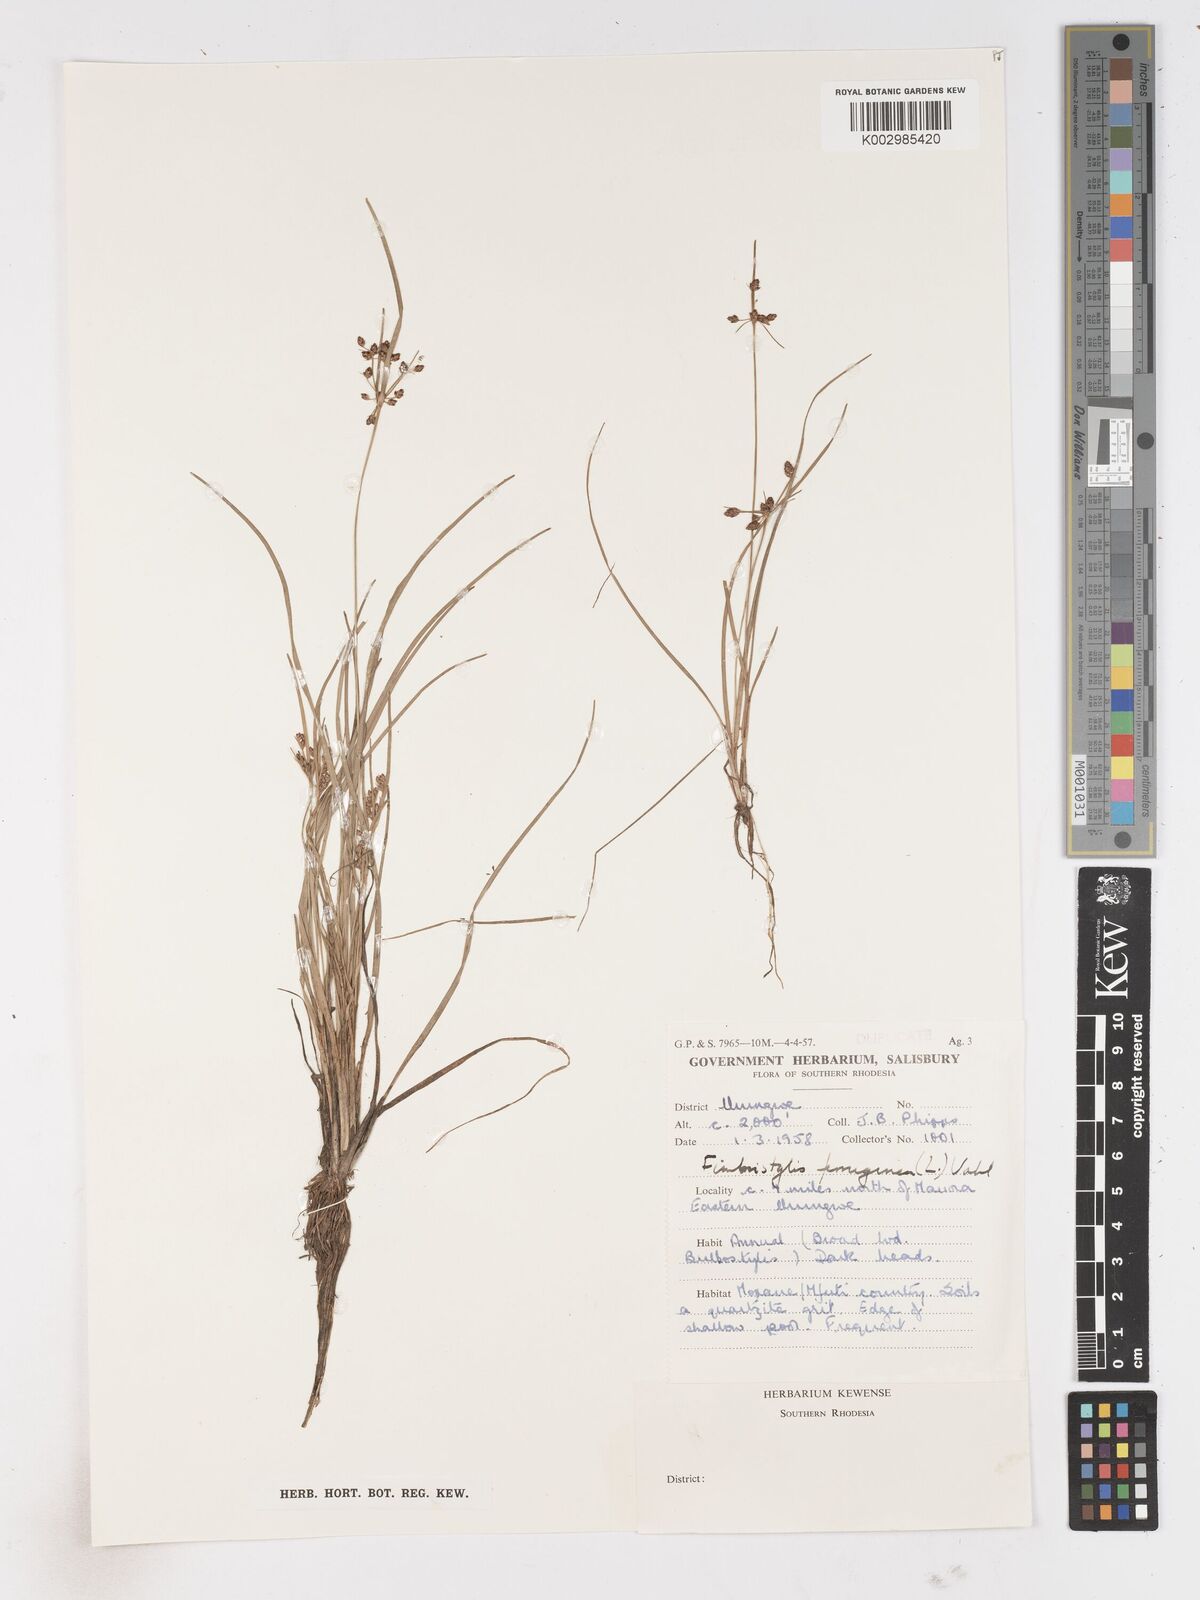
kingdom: Plantae
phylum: Tracheophyta
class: Liliopsida
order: Poales
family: Cyperaceae
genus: Fimbristylis
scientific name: Fimbristylis
